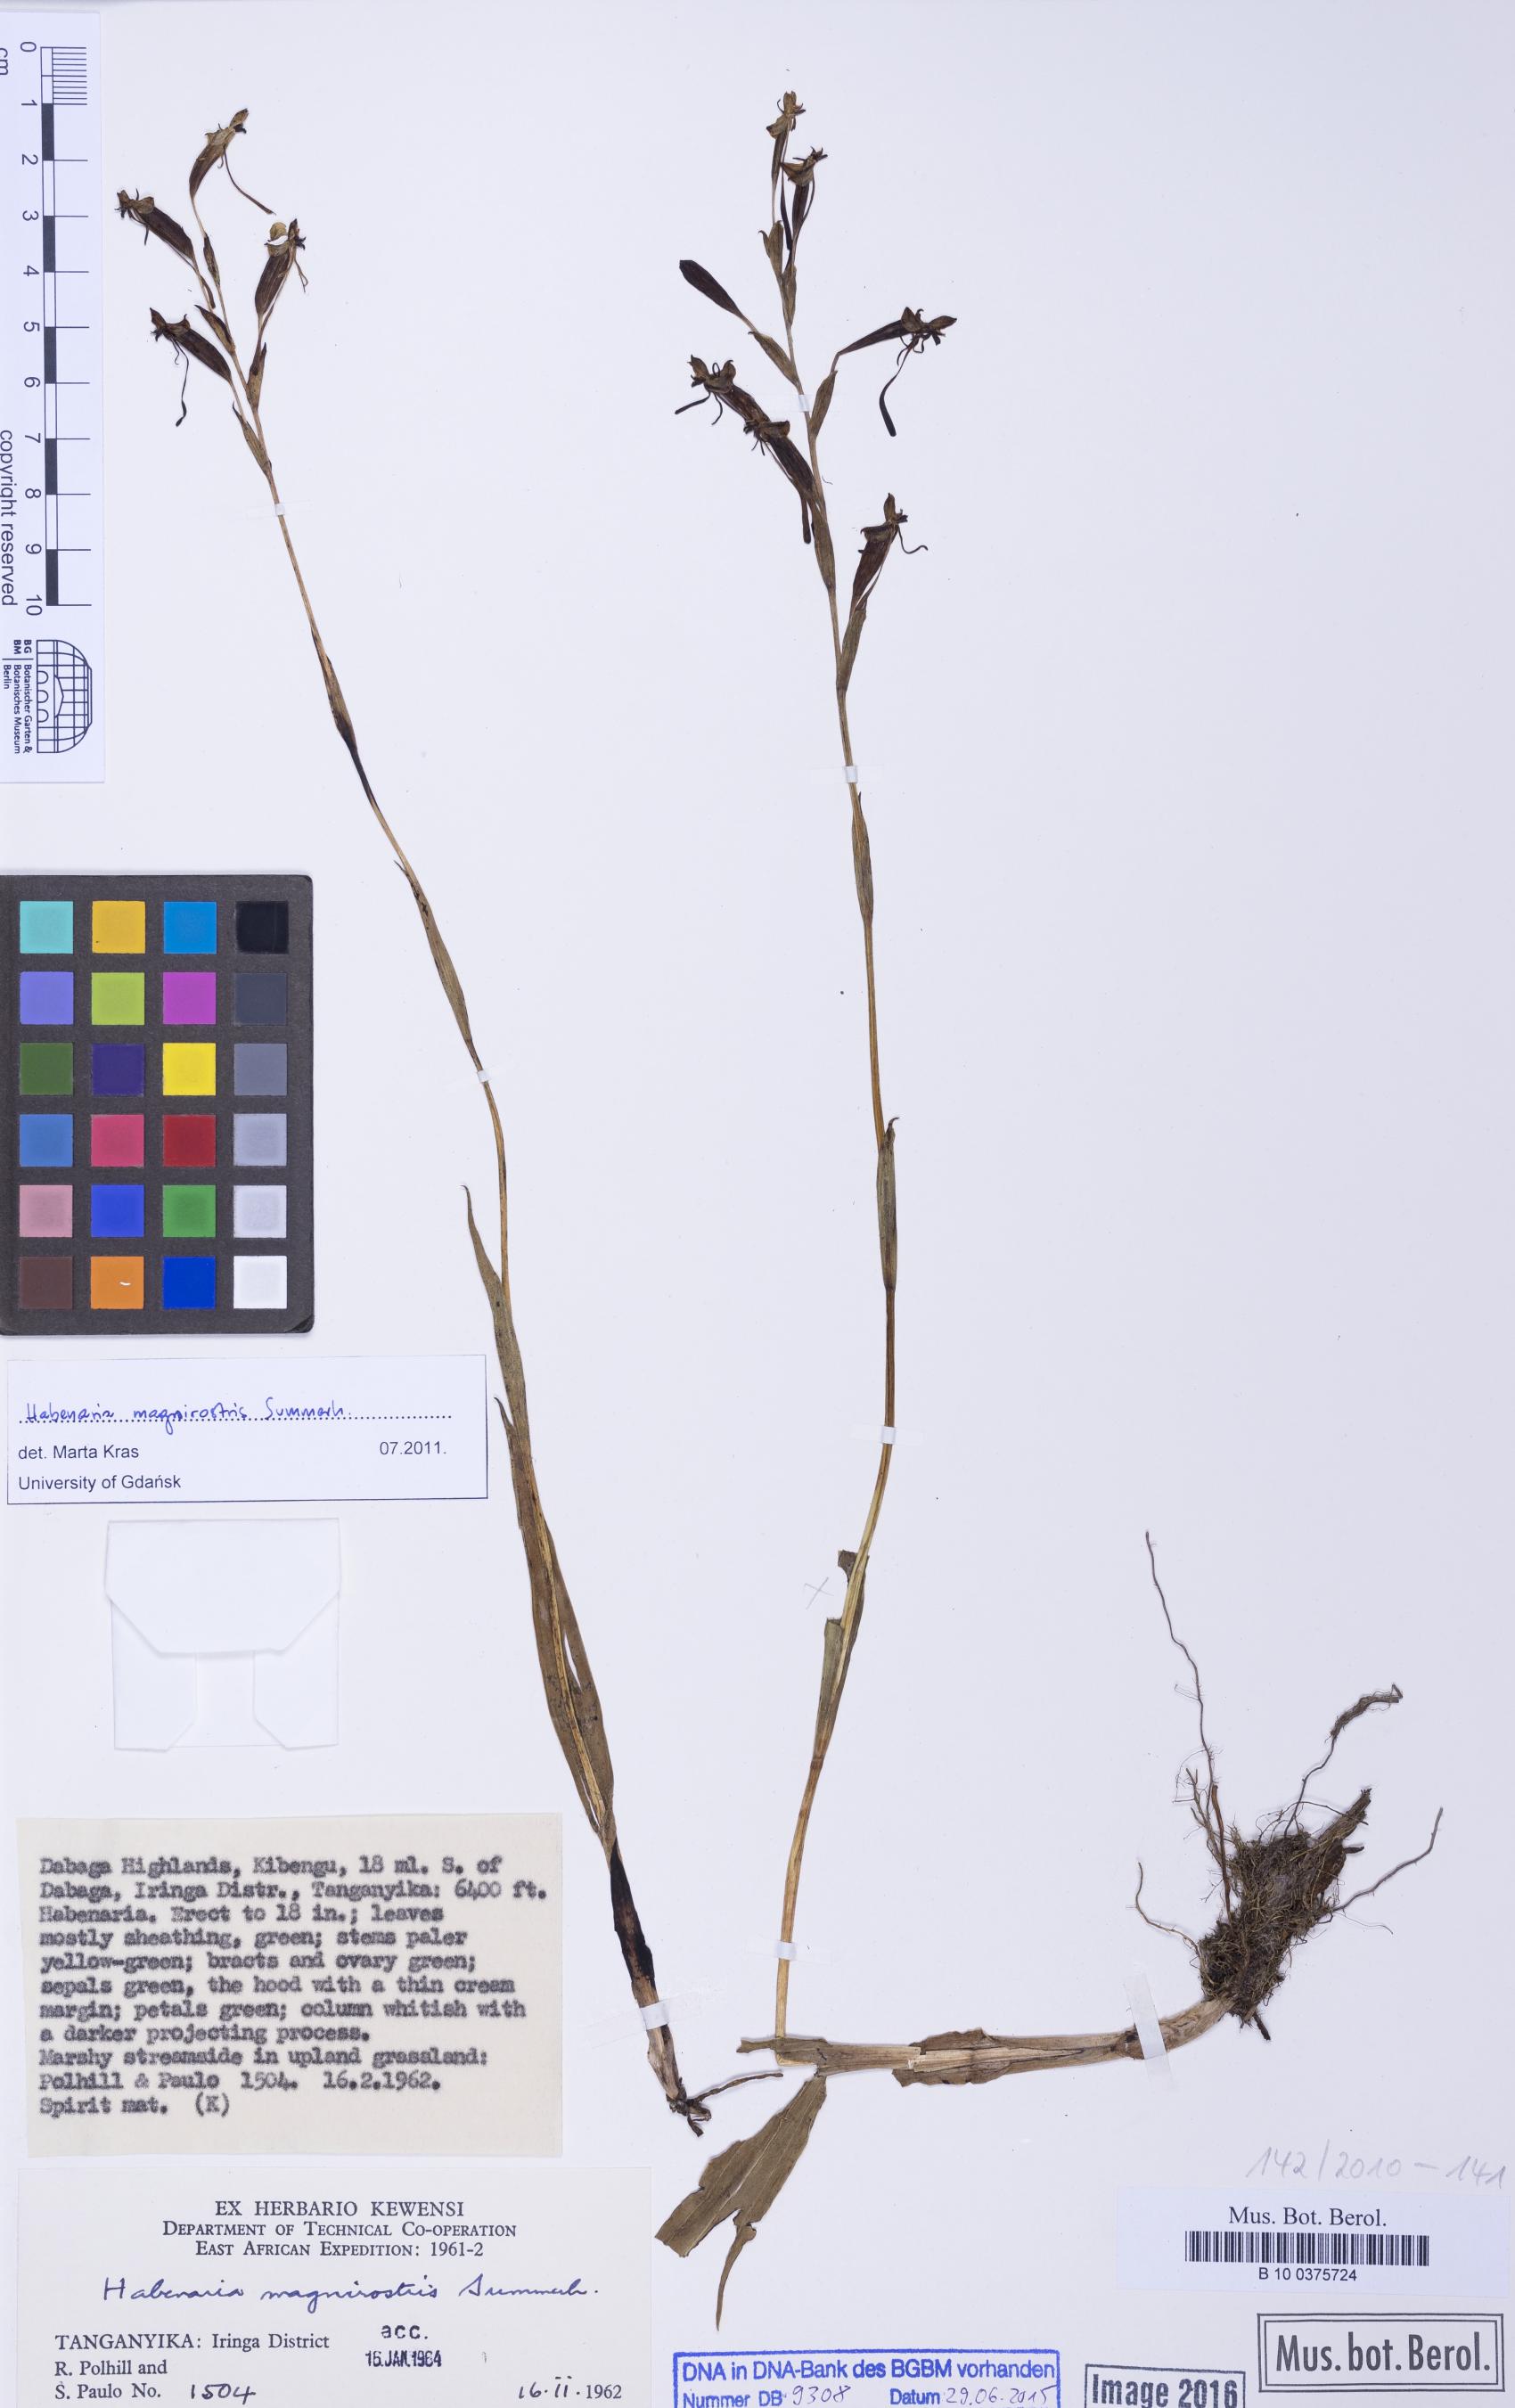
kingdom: Plantae
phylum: Tracheophyta
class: Liliopsida
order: Asparagales
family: Orchidaceae
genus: Habenaria
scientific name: Habenaria magnirostris
